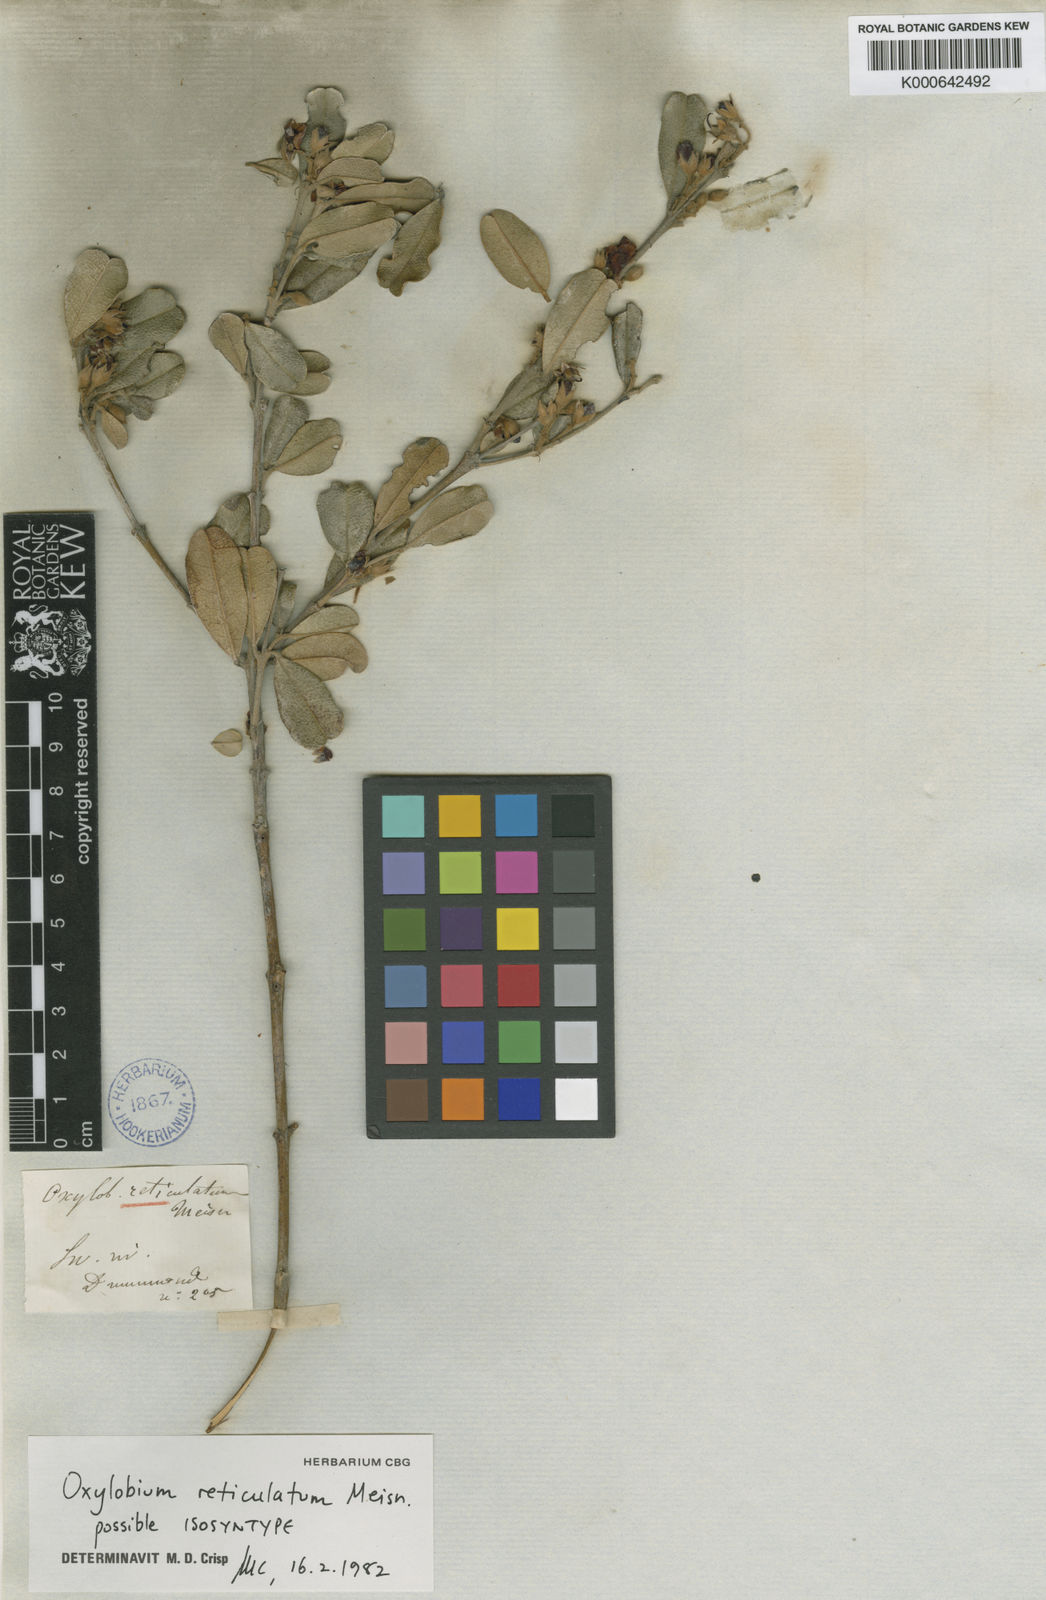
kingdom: Plantae
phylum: Tracheophyta
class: Magnoliopsida
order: Fabales
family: Fabaceae
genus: Gastrolobium
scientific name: Gastrolobium nervosum
